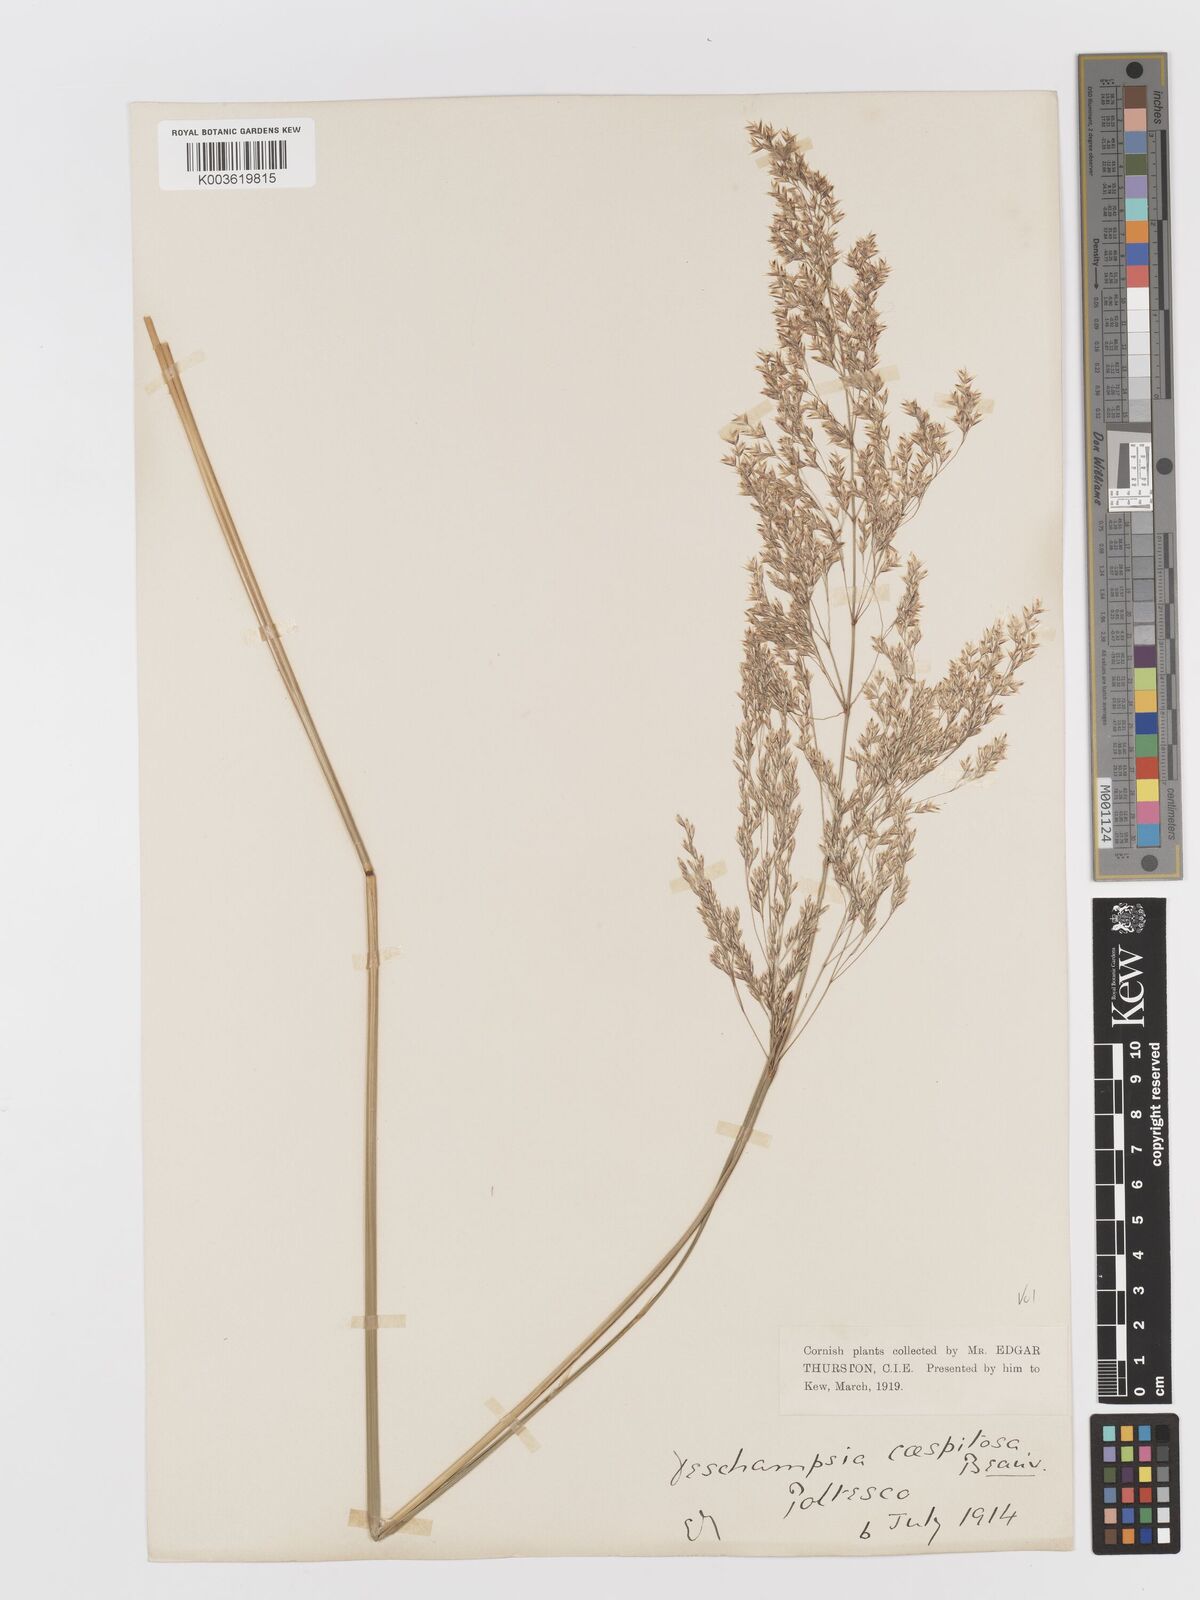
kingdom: Plantae
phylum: Tracheophyta
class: Liliopsida
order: Poales
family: Poaceae
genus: Deschampsia
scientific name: Deschampsia cespitosa
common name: Tufted hair-grass
